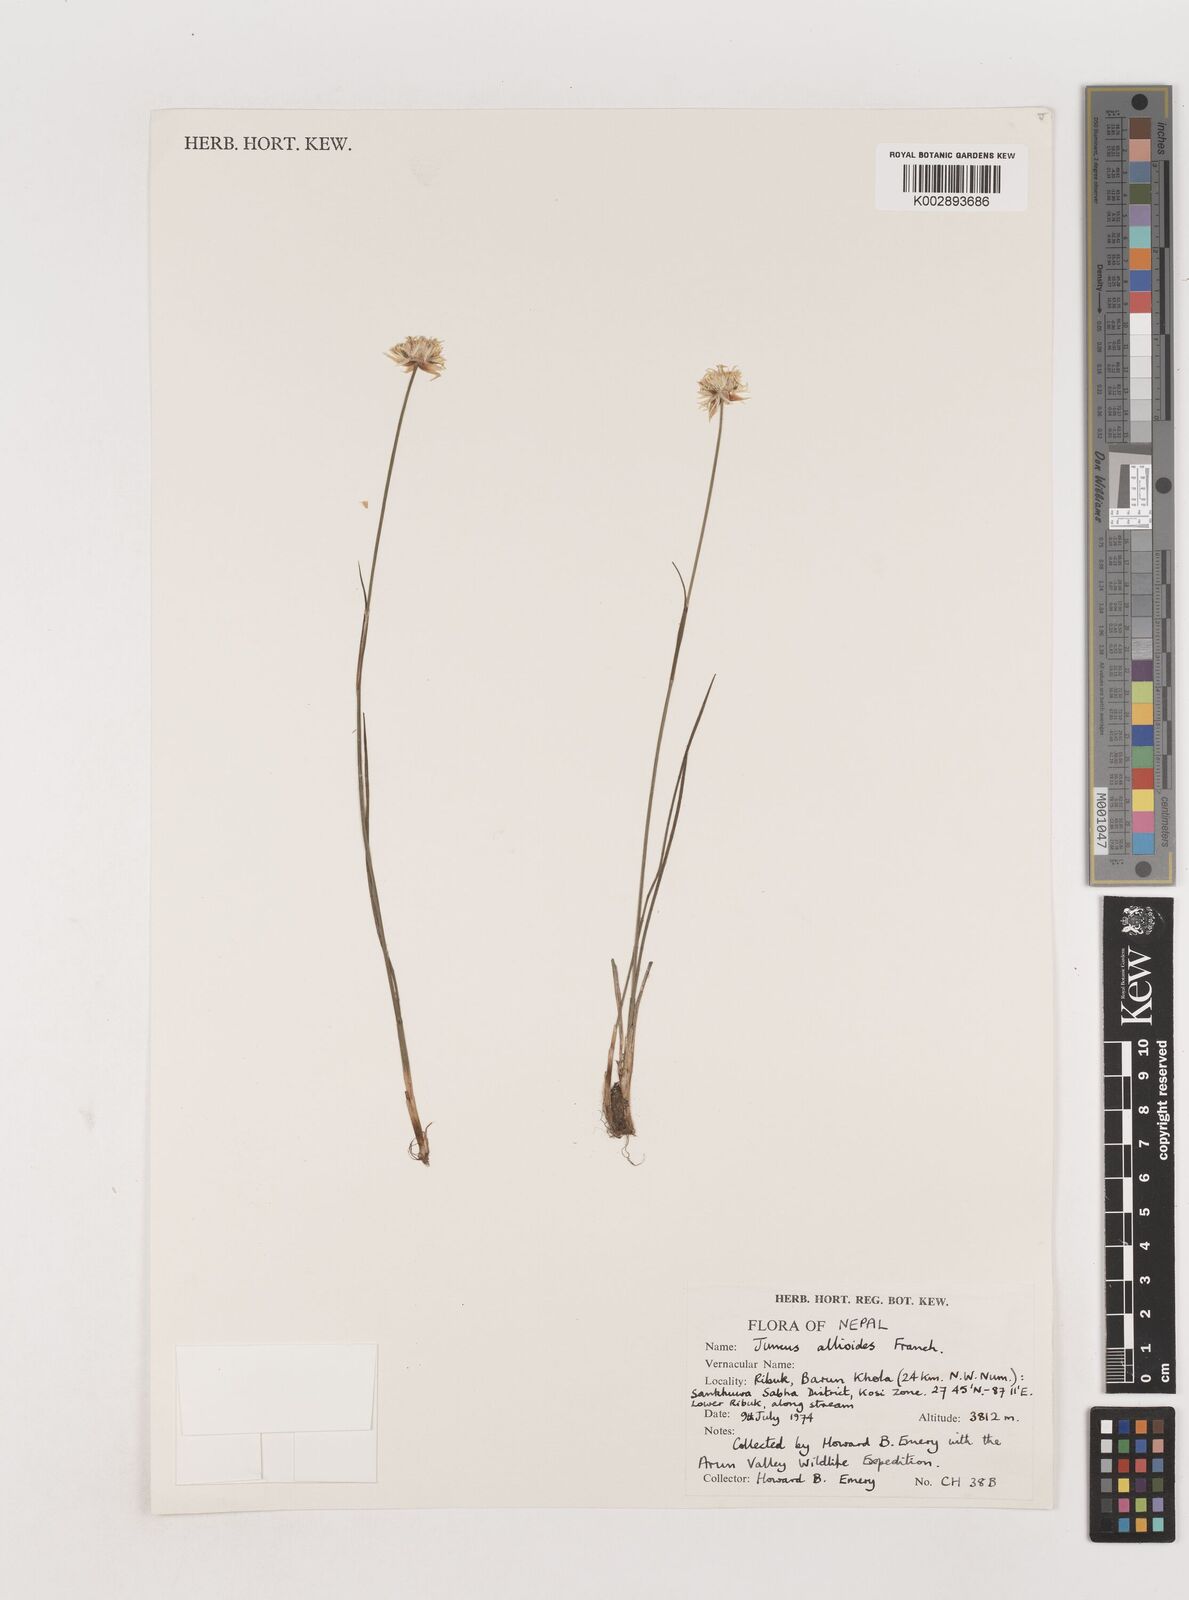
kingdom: Plantae
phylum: Tracheophyta
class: Liliopsida
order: Poales
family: Juncaceae
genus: Juncus
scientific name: Juncus allioides
